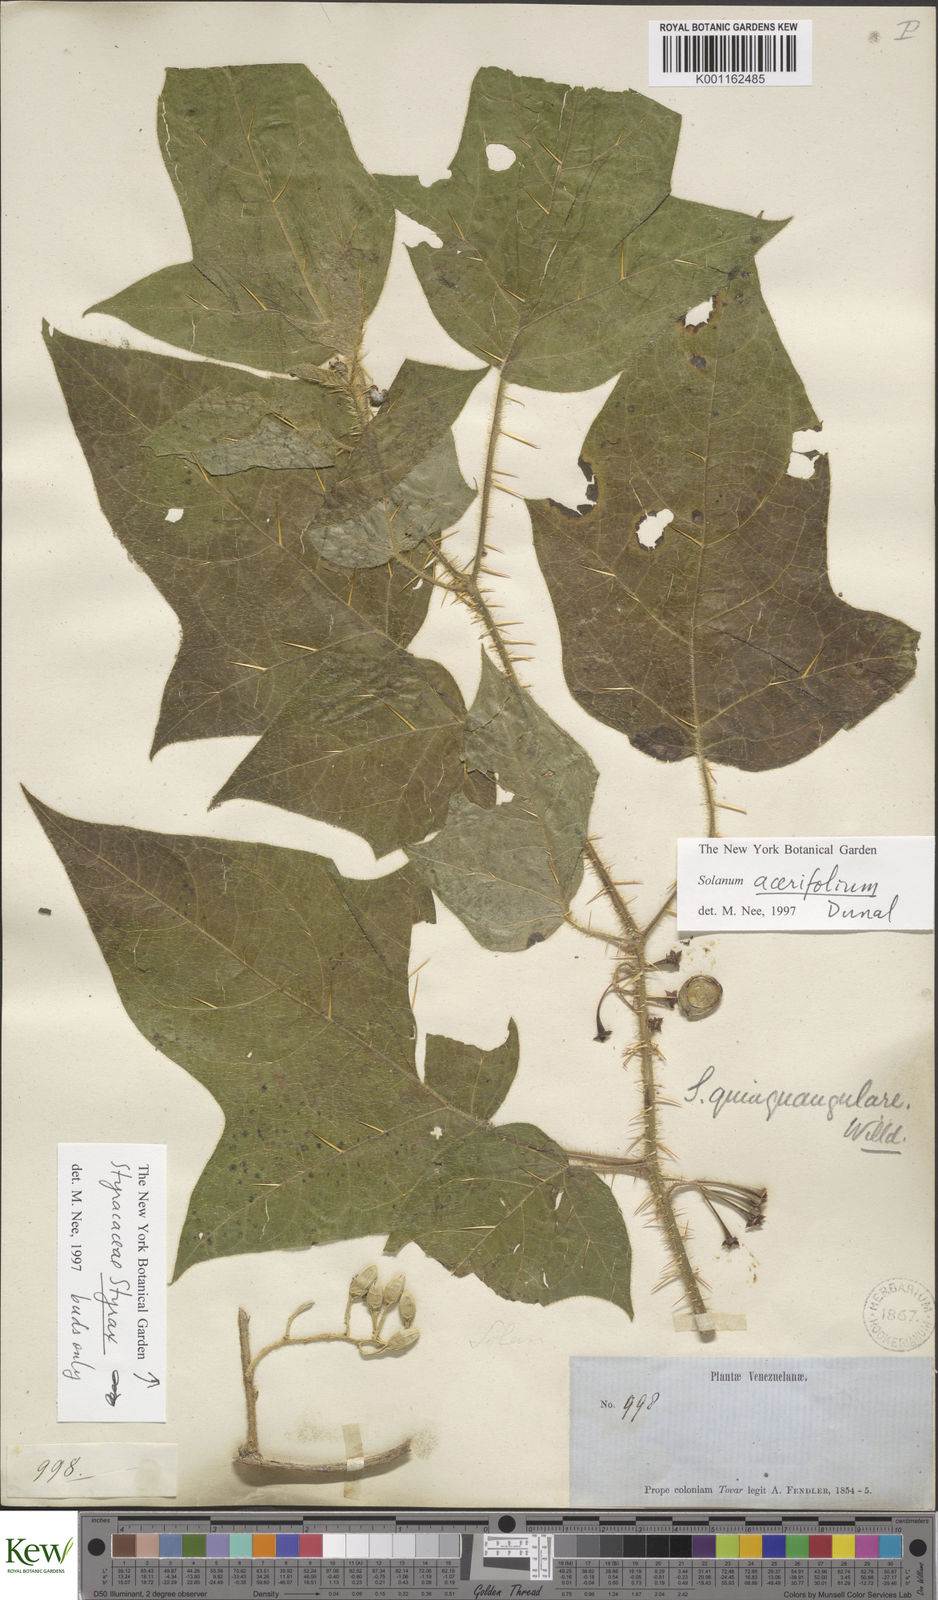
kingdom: Plantae
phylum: Tracheophyta
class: Magnoliopsida
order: Solanales
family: Solanaceae
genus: Solanum
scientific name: Solanum acerifolium
